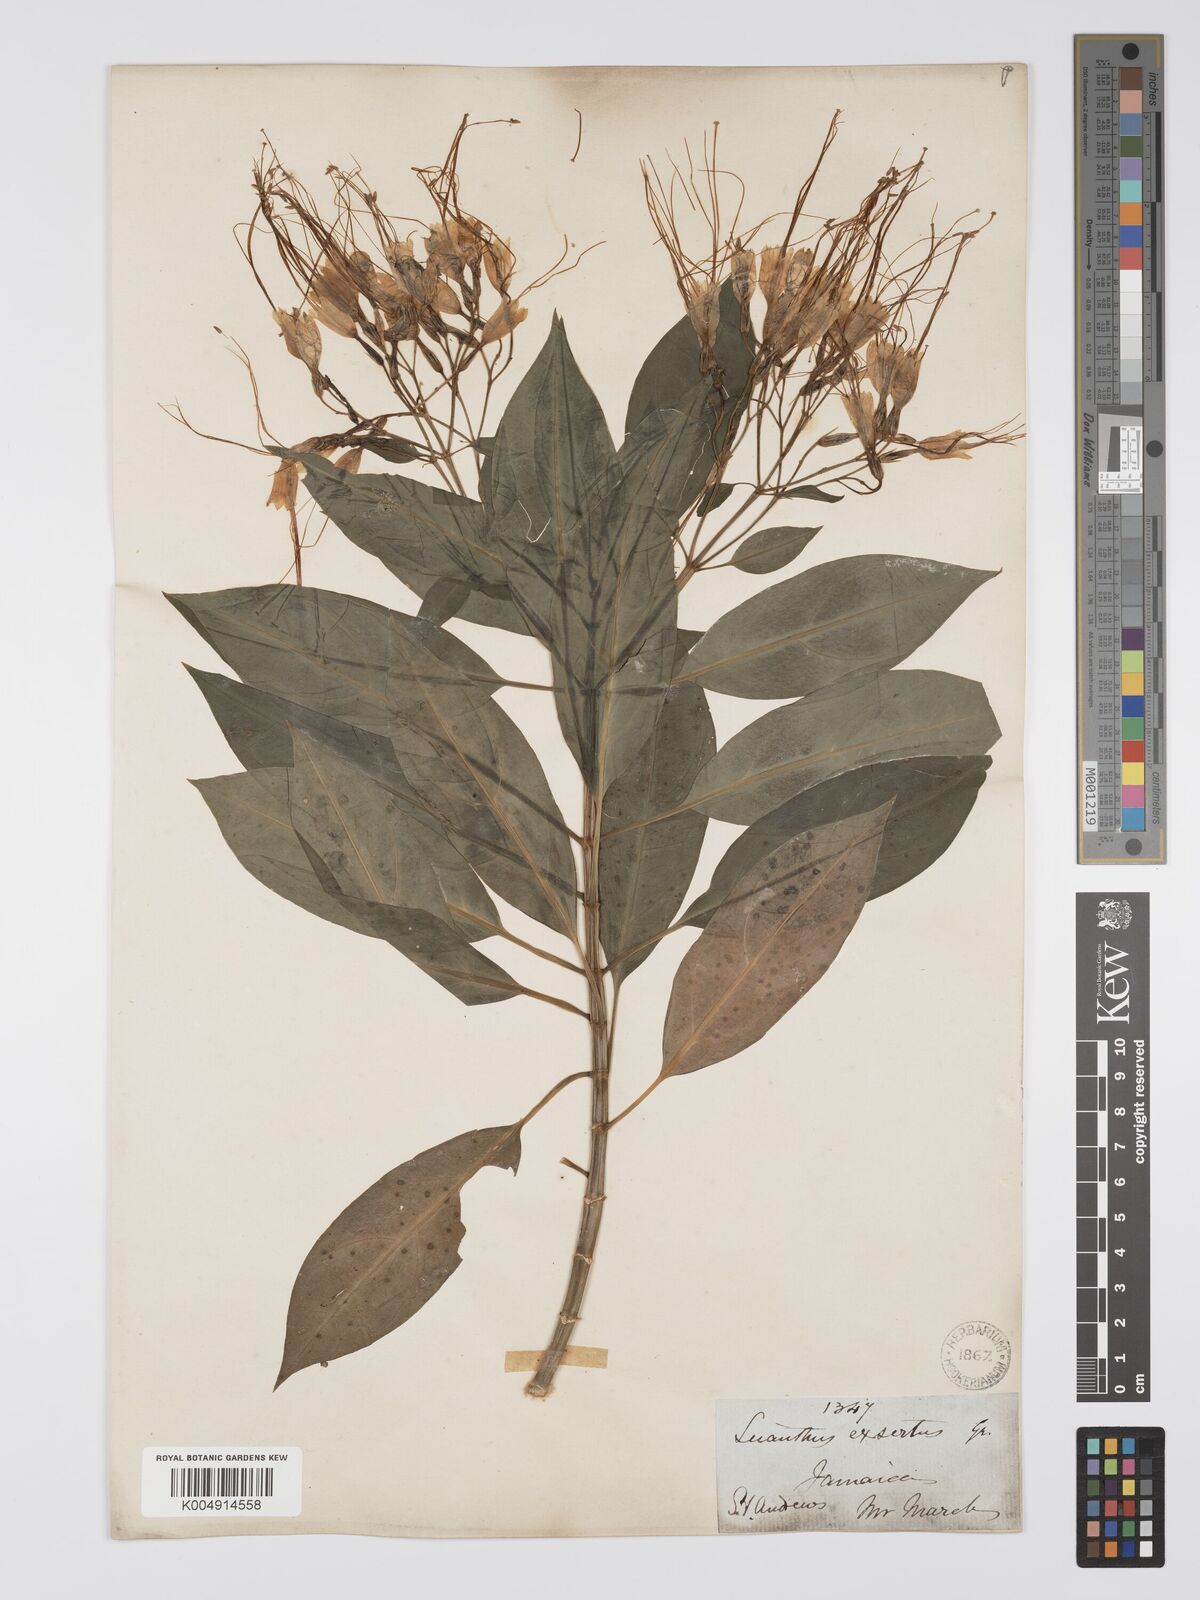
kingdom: Plantae
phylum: Tracheophyta
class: Magnoliopsida
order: Gentianales
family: Gentianaceae
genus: Lisianthus
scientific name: Lisianthus exsertus
